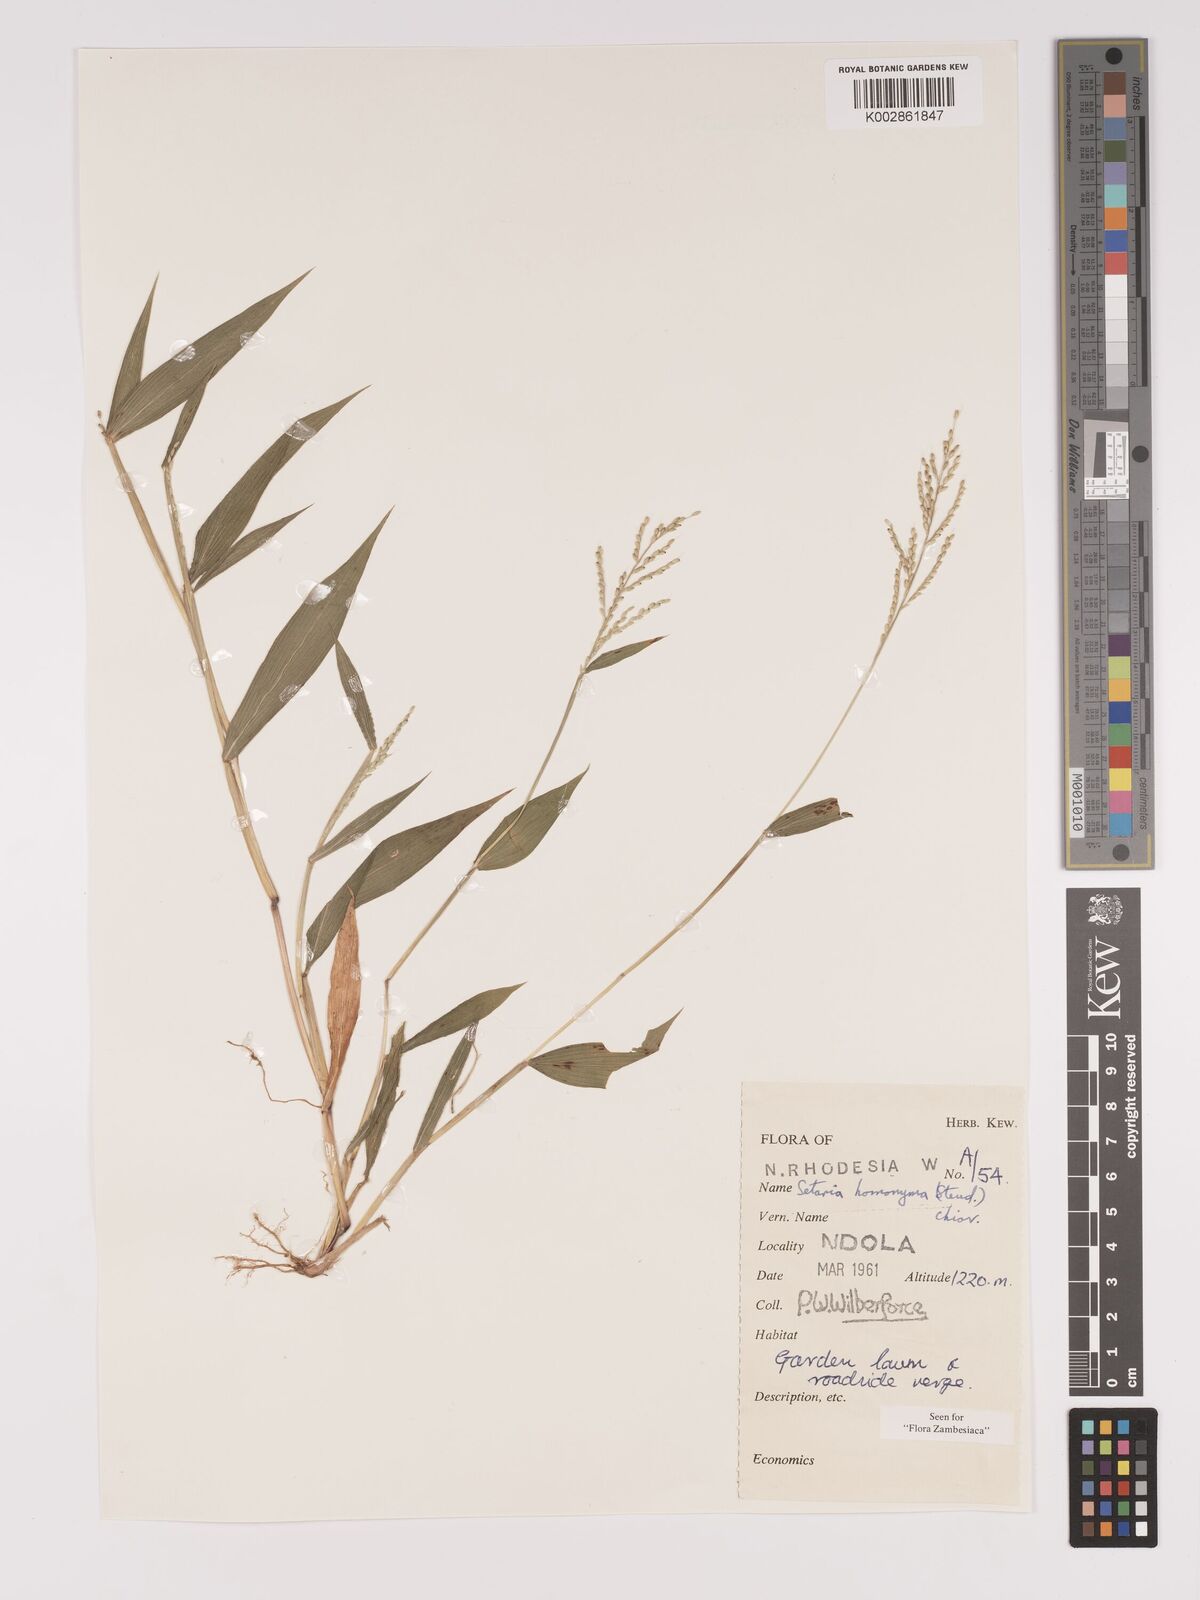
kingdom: Plantae
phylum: Tracheophyta
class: Liliopsida
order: Poales
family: Poaceae
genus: Setaria
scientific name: Setaria homonyma
